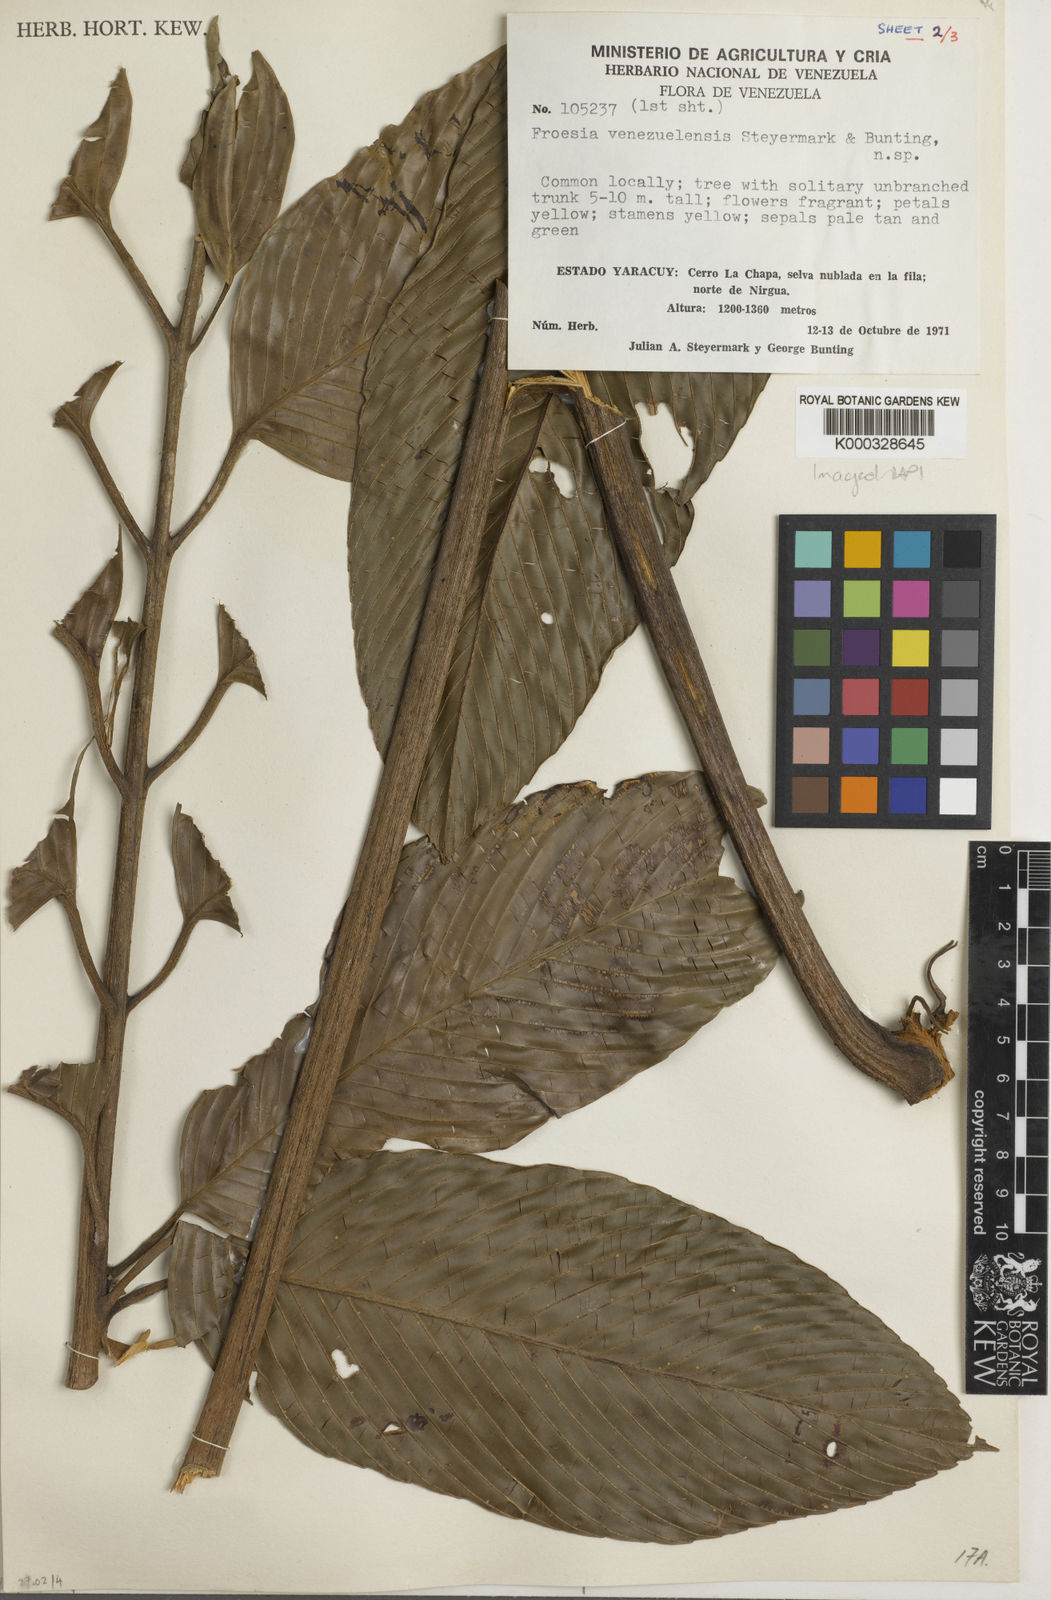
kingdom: Plantae
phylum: Tracheophyta
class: Magnoliopsida
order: Malpighiales
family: Quiinaceae
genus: Froesia
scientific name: Froesia venezuelensis
